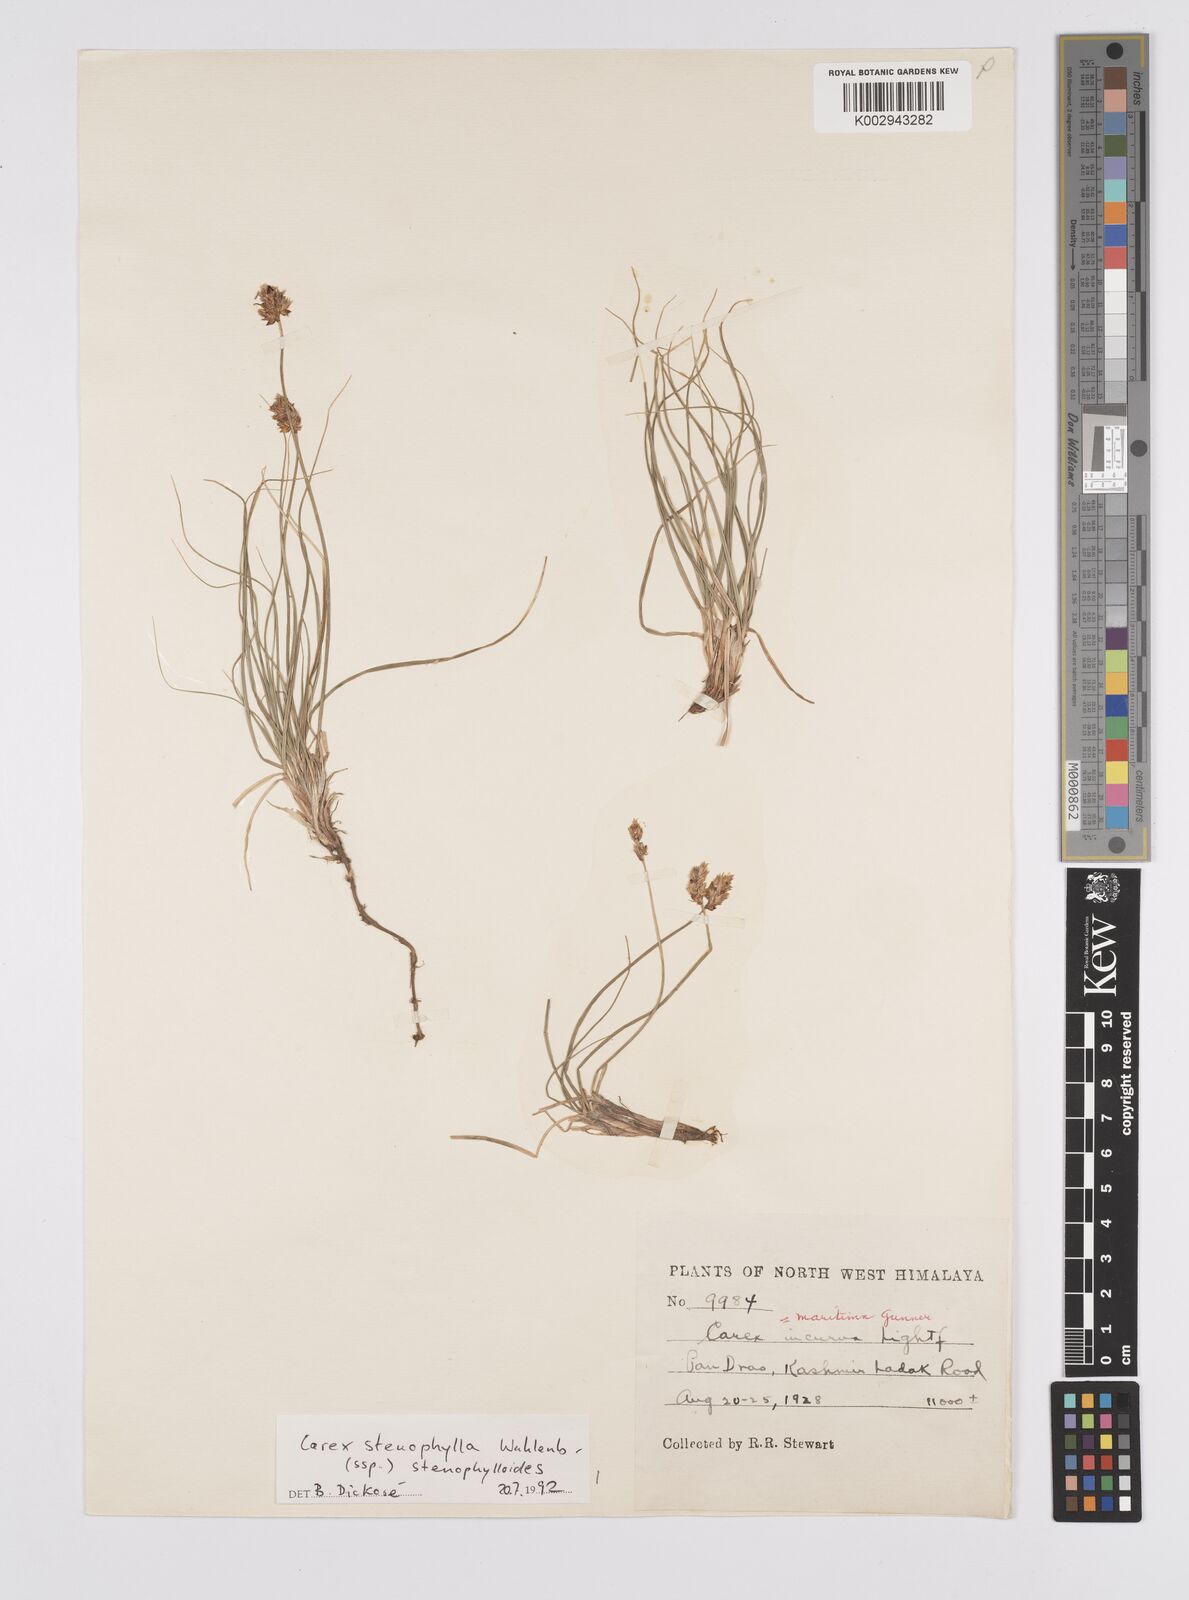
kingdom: Plantae
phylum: Tracheophyta
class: Liliopsida
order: Poales
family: Cyperaceae
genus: Carex
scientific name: Carex stenophylla
